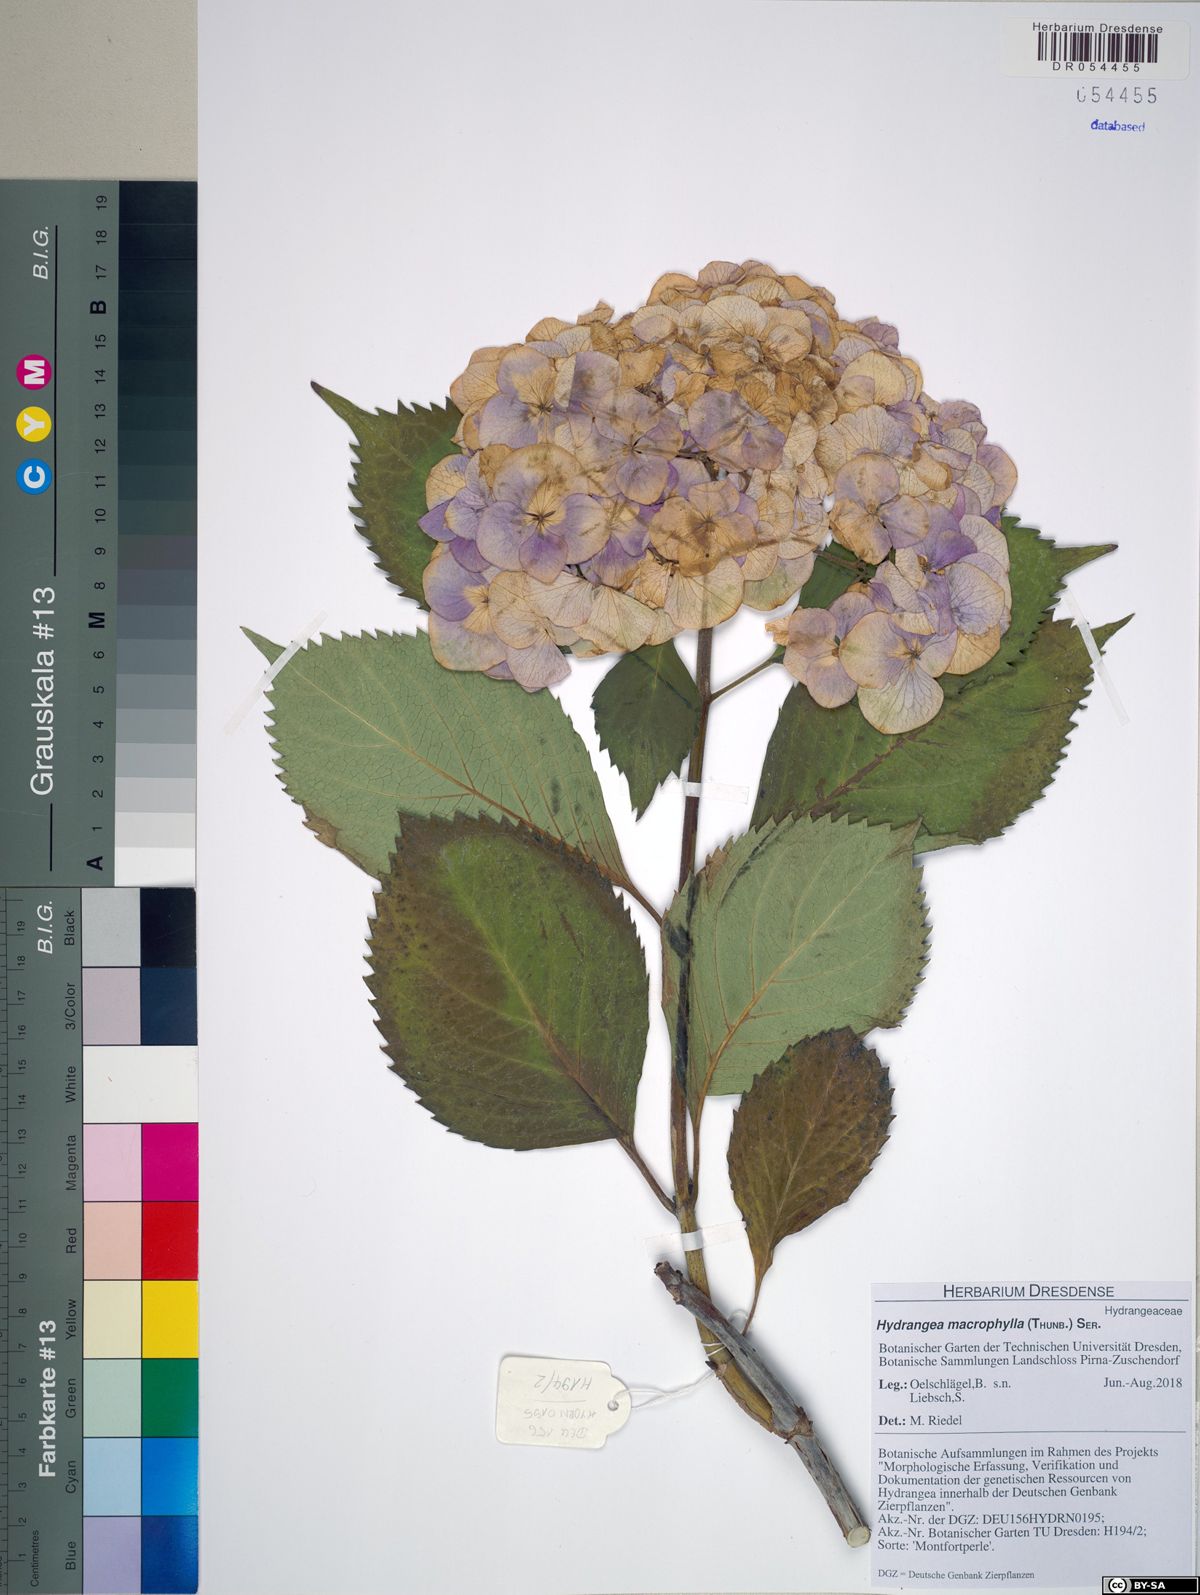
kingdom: Plantae
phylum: Tracheophyta
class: Magnoliopsida
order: Cornales
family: Hydrangeaceae
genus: Hydrangea
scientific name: Hydrangea macrophylla
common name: Hydrangea
